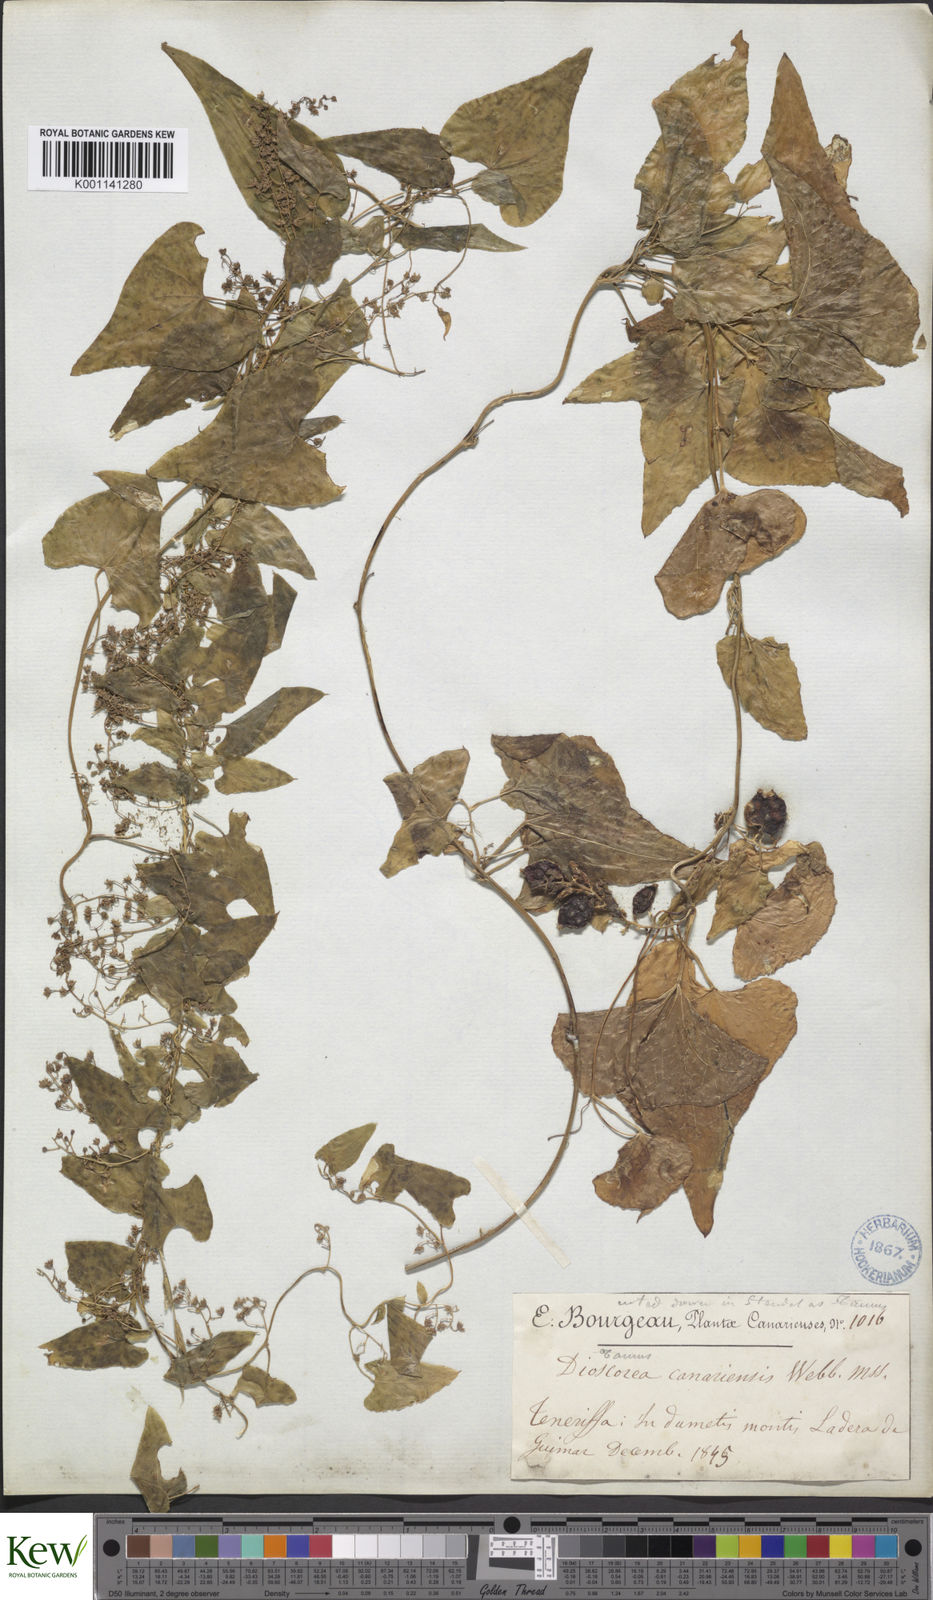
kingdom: Plantae
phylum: Tracheophyta
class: Liliopsida
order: Dioscoreales
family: Dioscoreaceae
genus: Dioscorea
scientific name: Dioscorea
